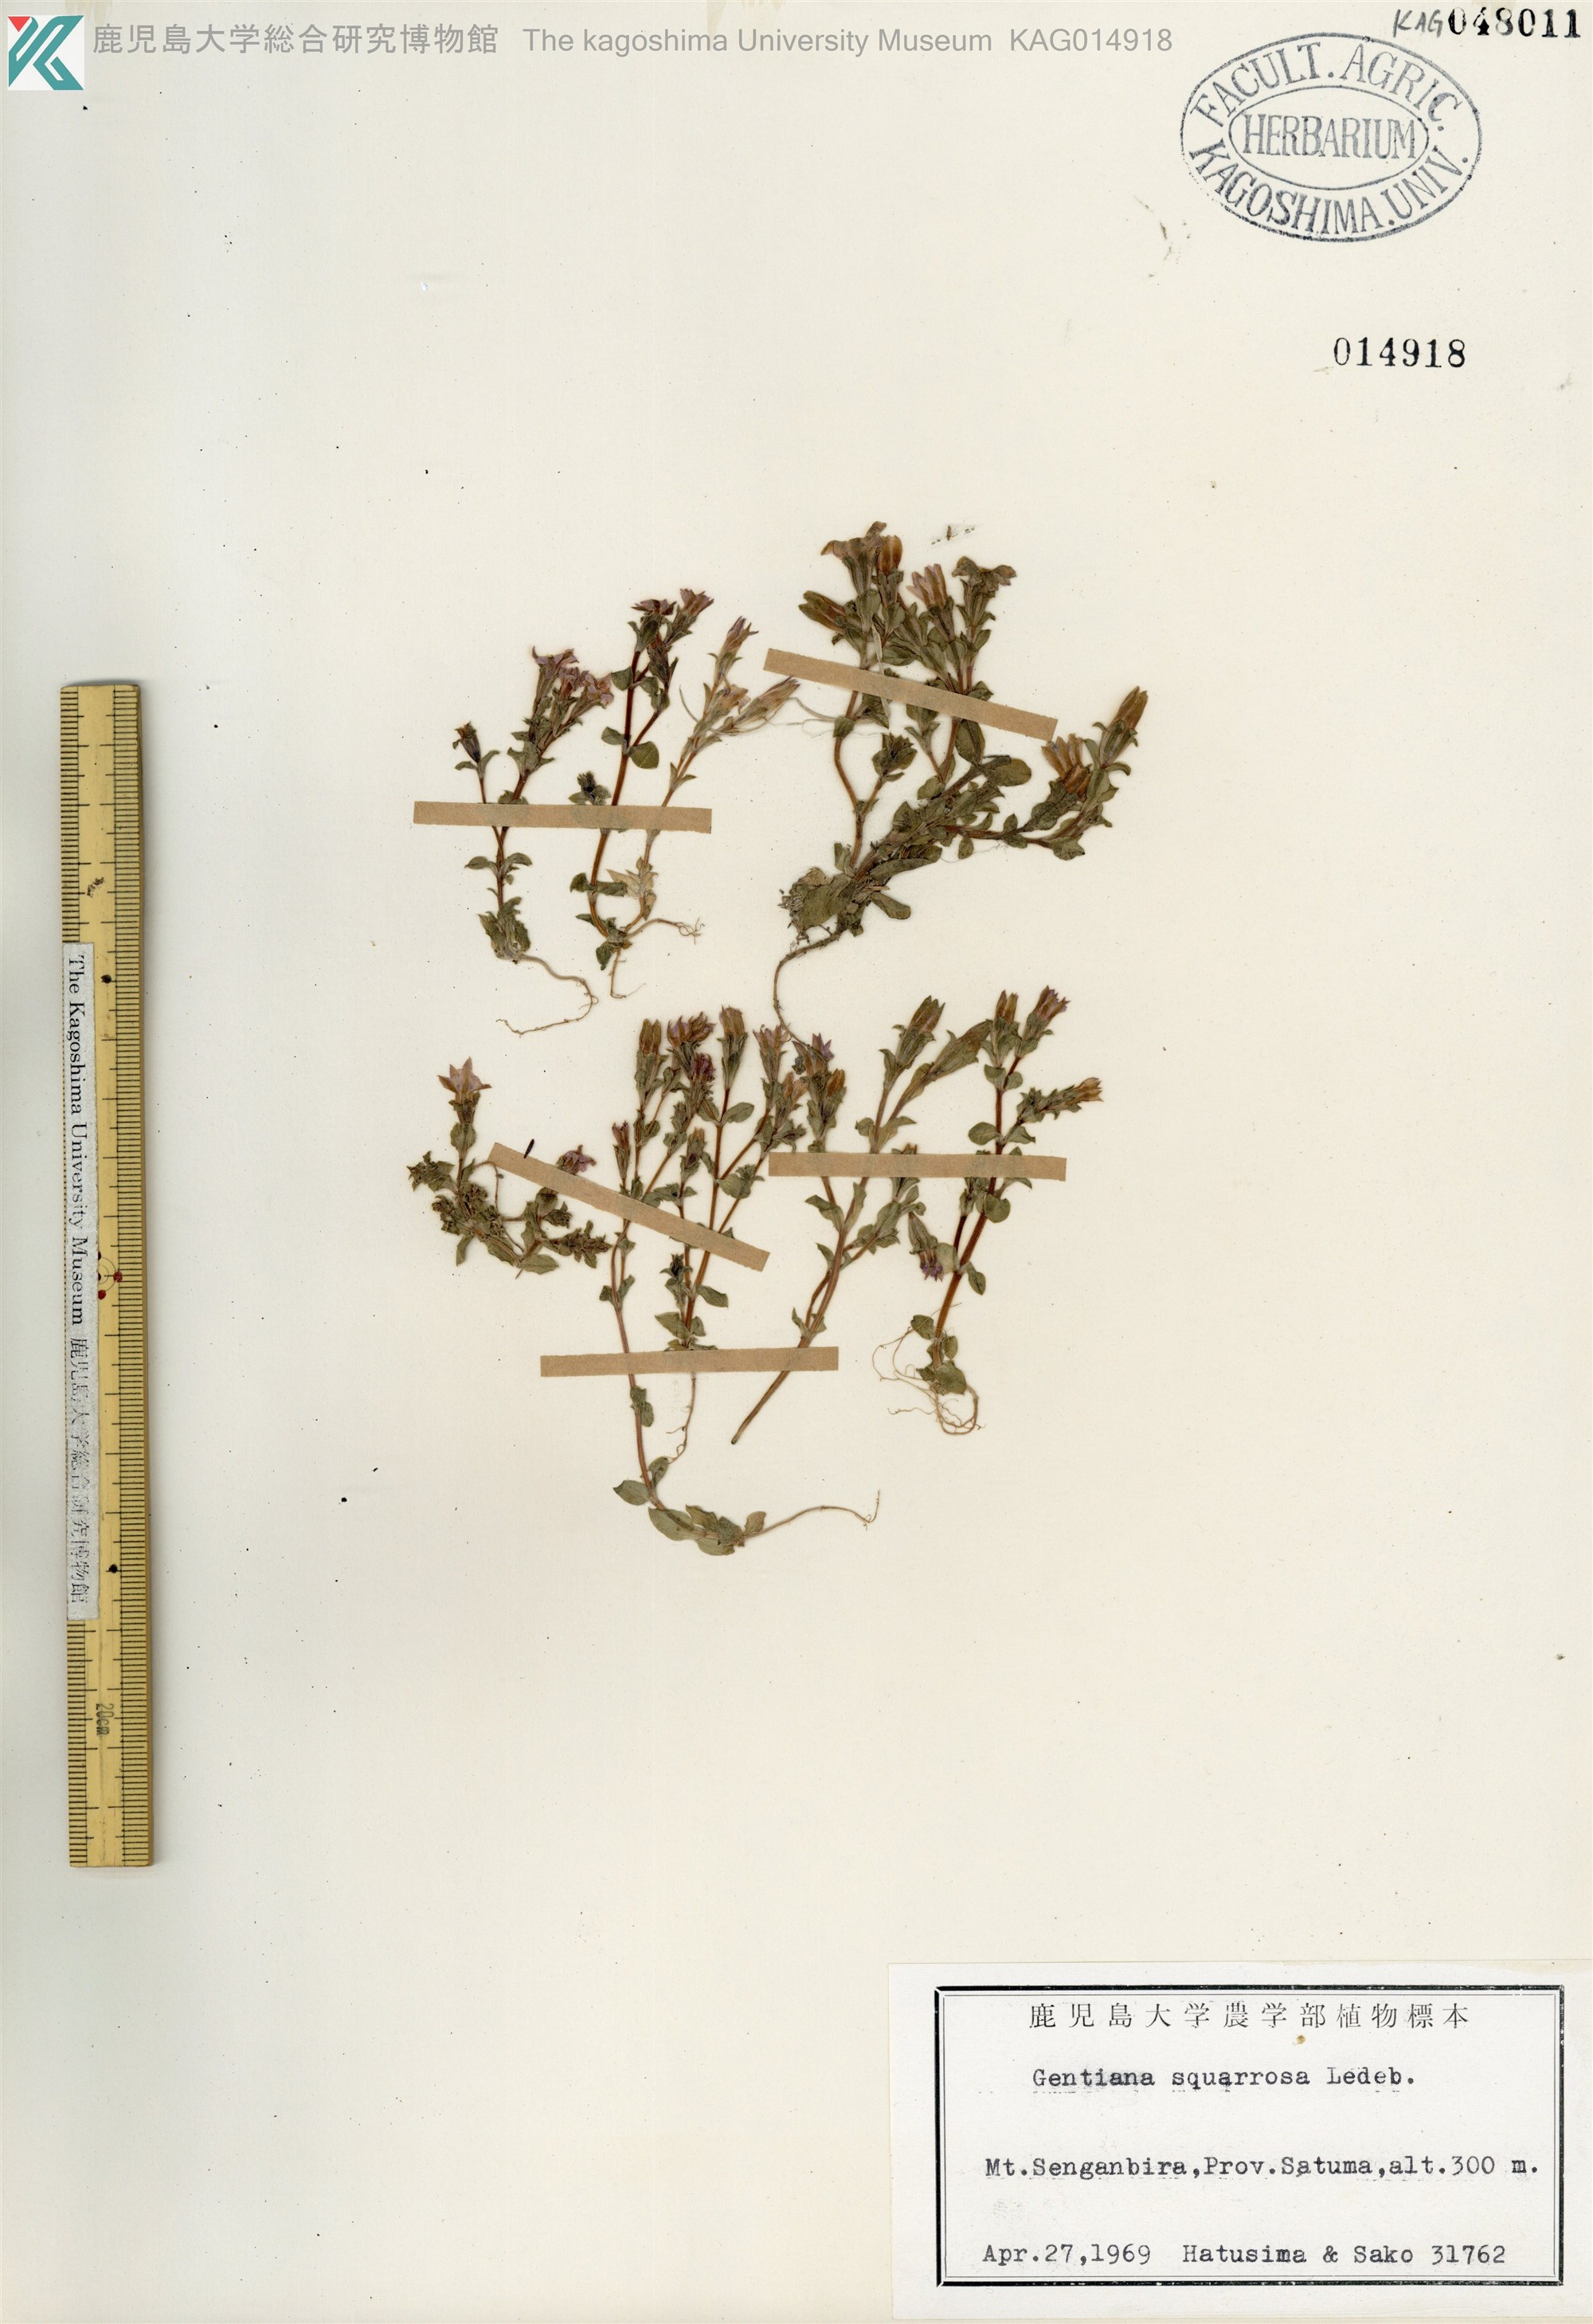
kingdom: Plantae
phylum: Tracheophyta
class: Magnoliopsida
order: Gentianales
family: Gentianaceae
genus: Gentiana
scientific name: Gentiana squarrosa
